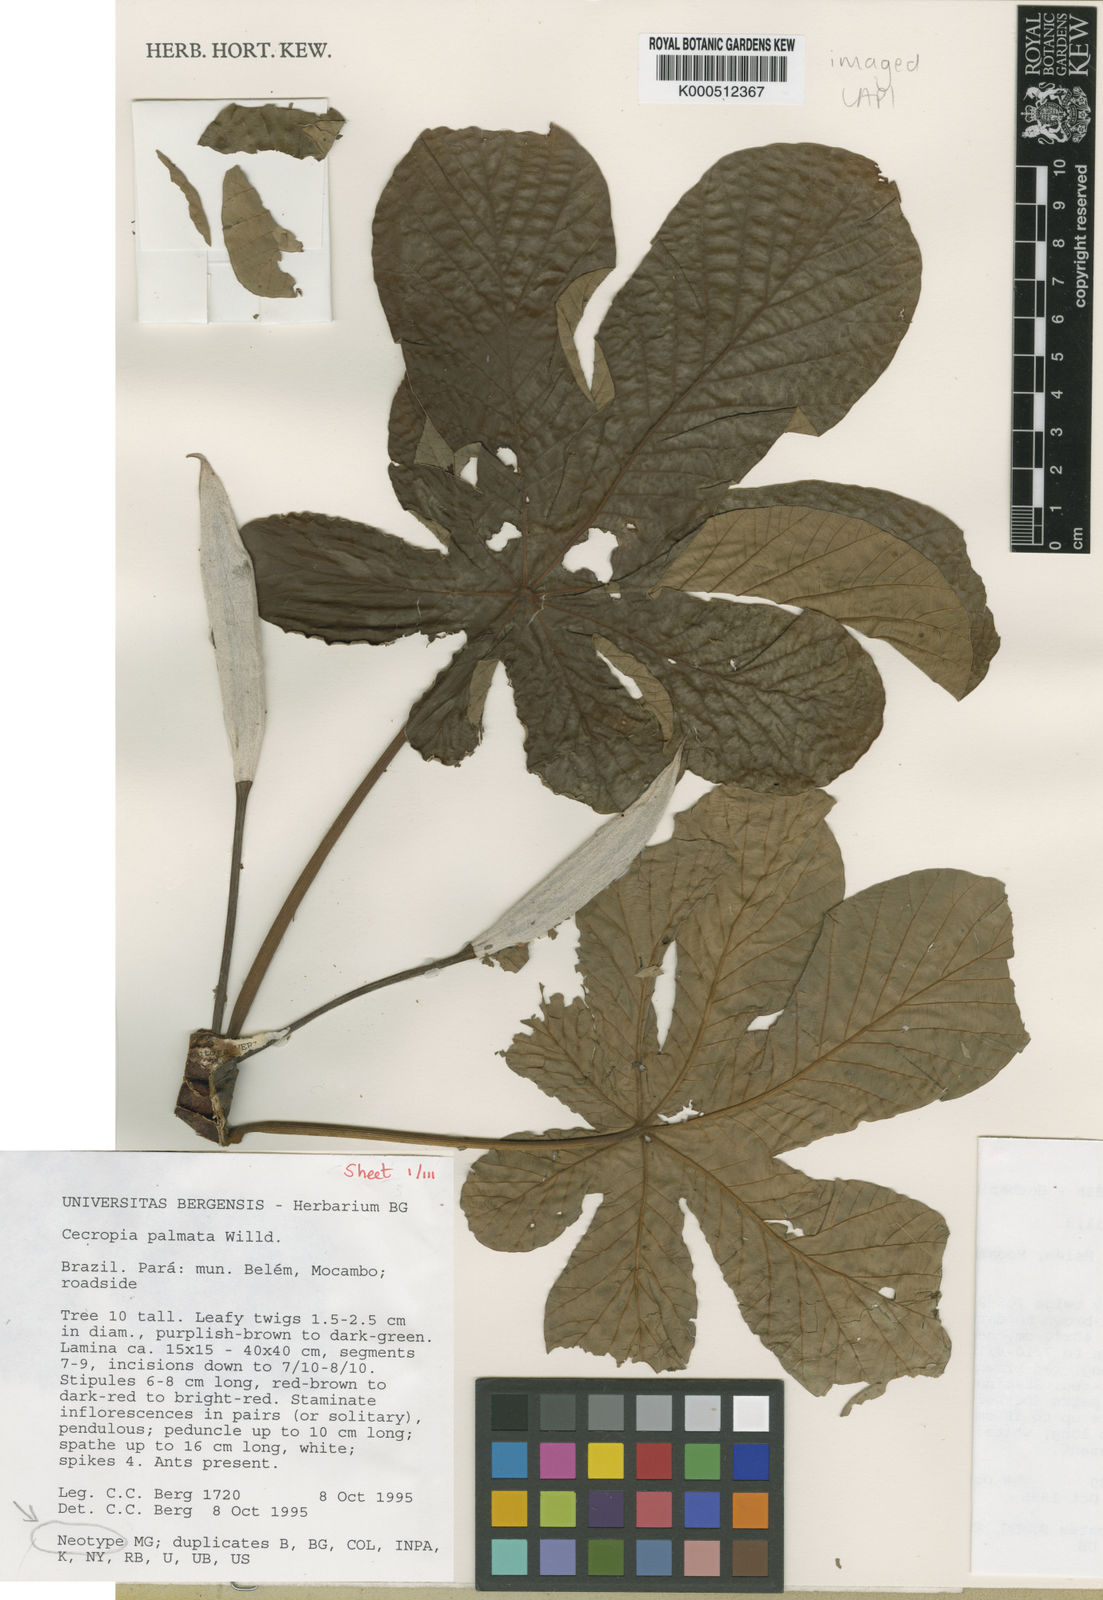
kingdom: Plantae
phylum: Tracheophyta
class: Magnoliopsida
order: Rosales
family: Urticaceae
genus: Cecropia
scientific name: Cecropia palmata
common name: Trumpet tree
